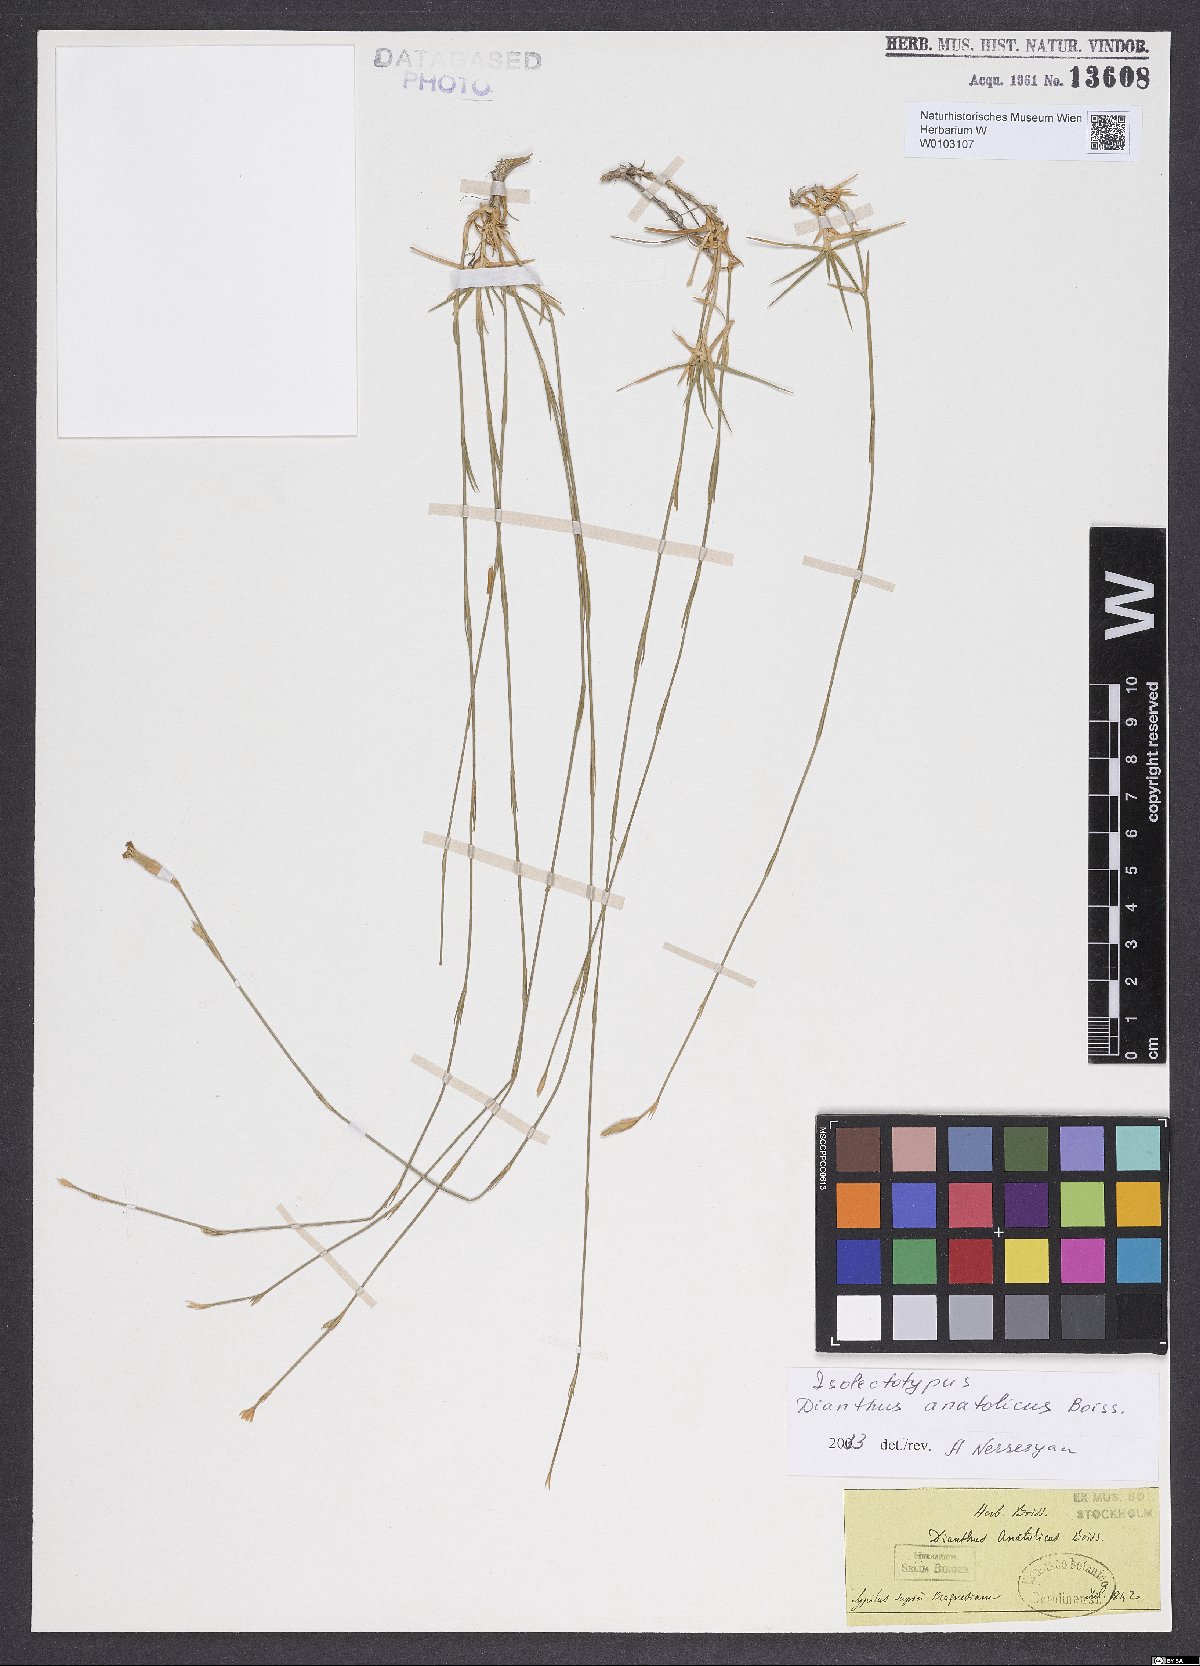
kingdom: Plantae
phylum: Tracheophyta
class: Magnoliopsida
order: Caryophyllales
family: Caryophyllaceae
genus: Dianthus
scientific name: Dianthus anatolicus
